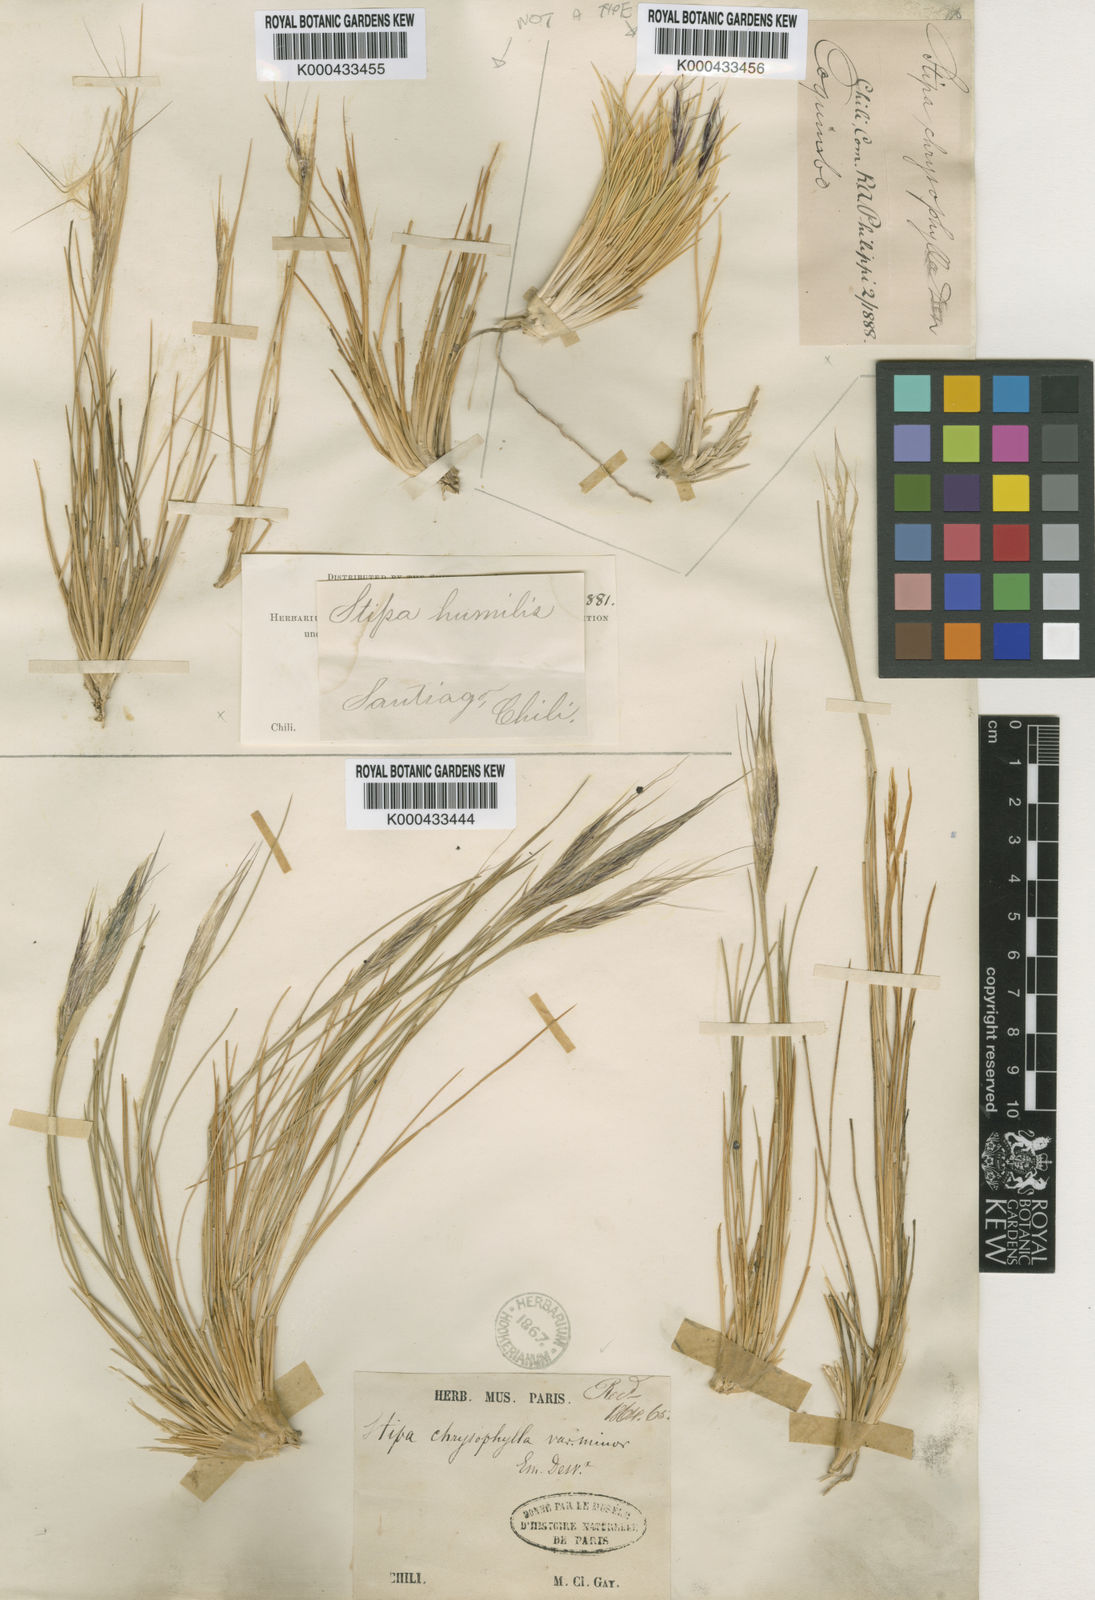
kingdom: Plantae
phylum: Tracheophyta
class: Liliopsida
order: Poales
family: Poaceae
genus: Pappostipa
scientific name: Pappostipa chrysophylla
